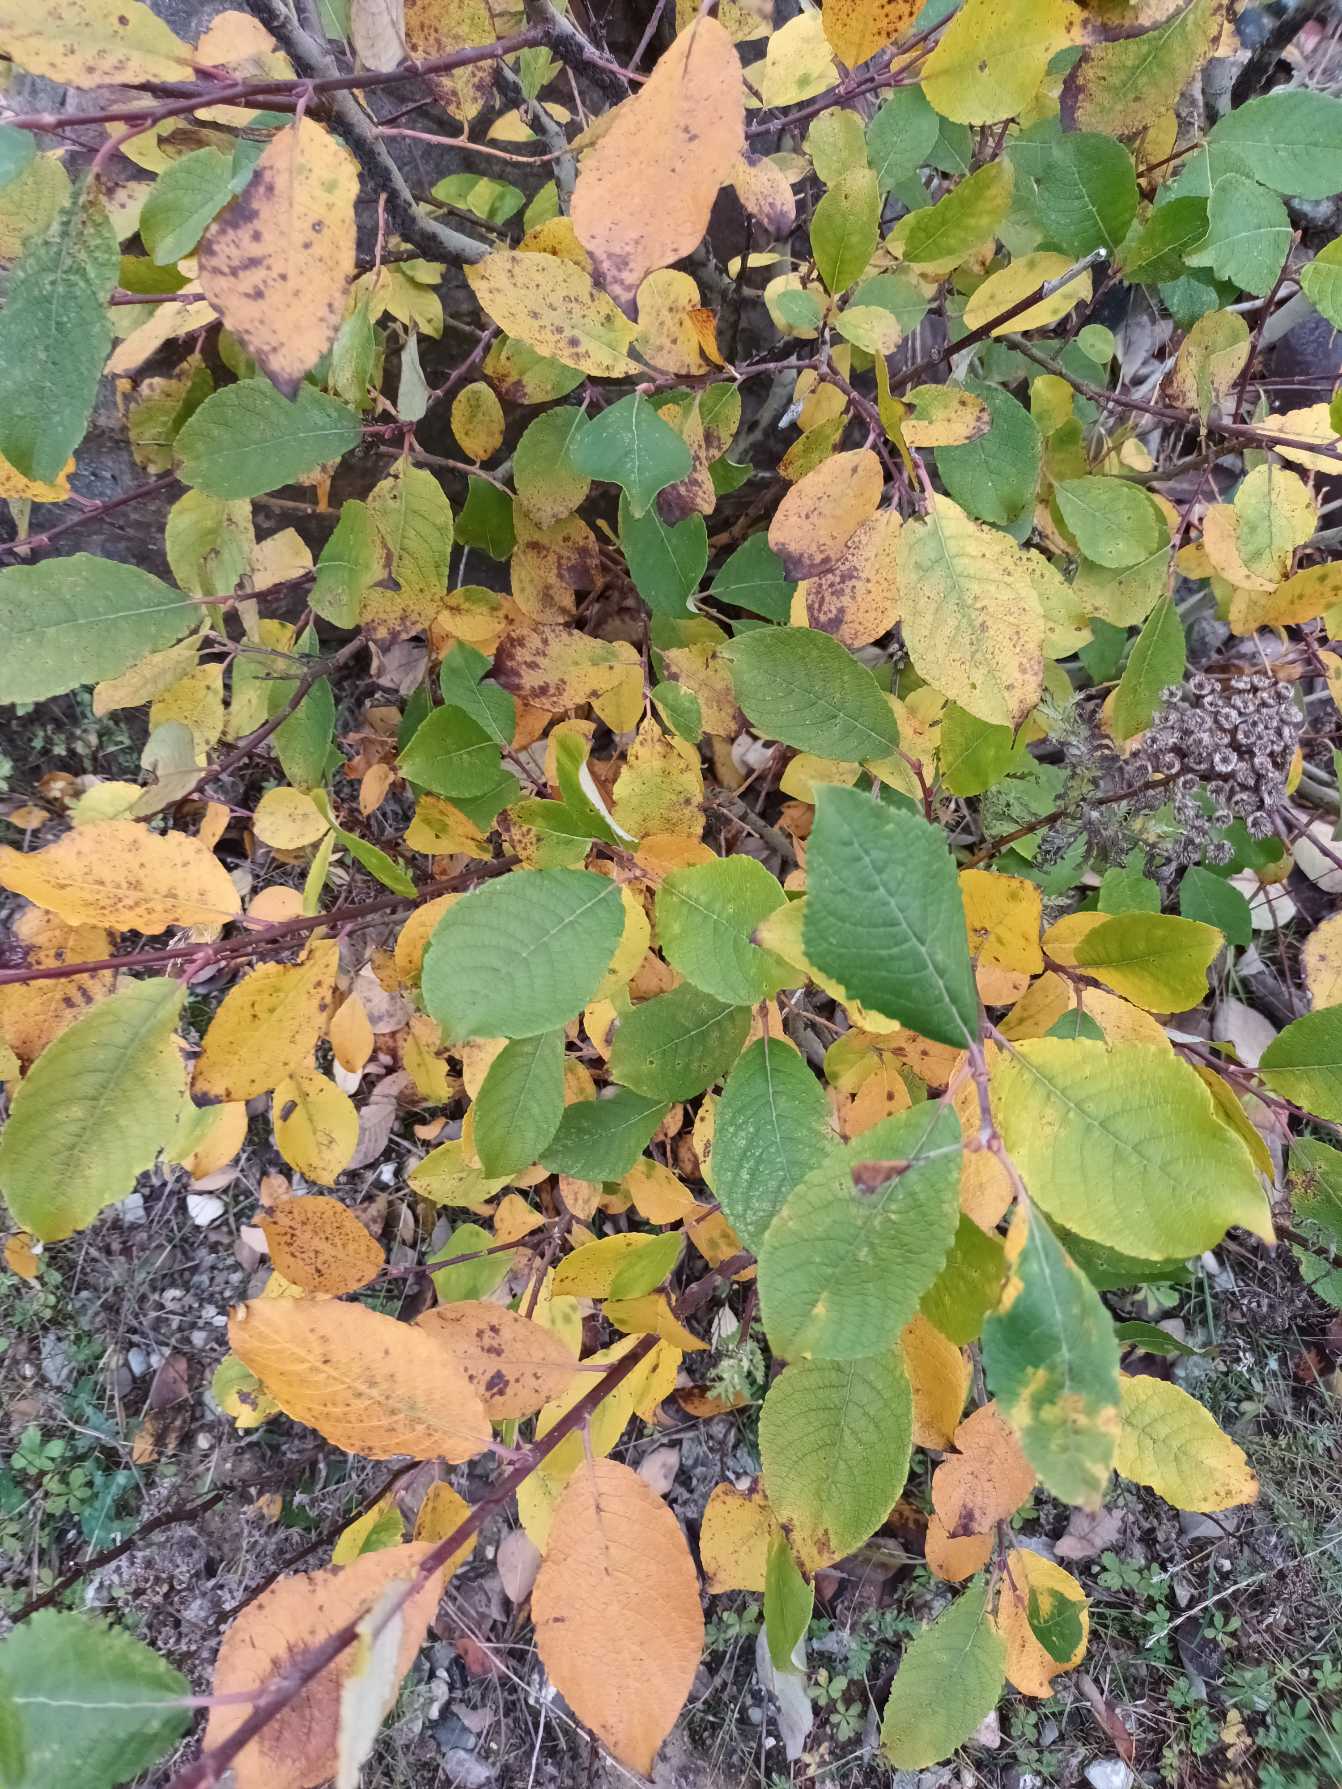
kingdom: Plantae
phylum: Tracheophyta
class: Magnoliopsida
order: Malpighiales
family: Salicaceae
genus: Salix
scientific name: Salix caprea
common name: Selje-pil
